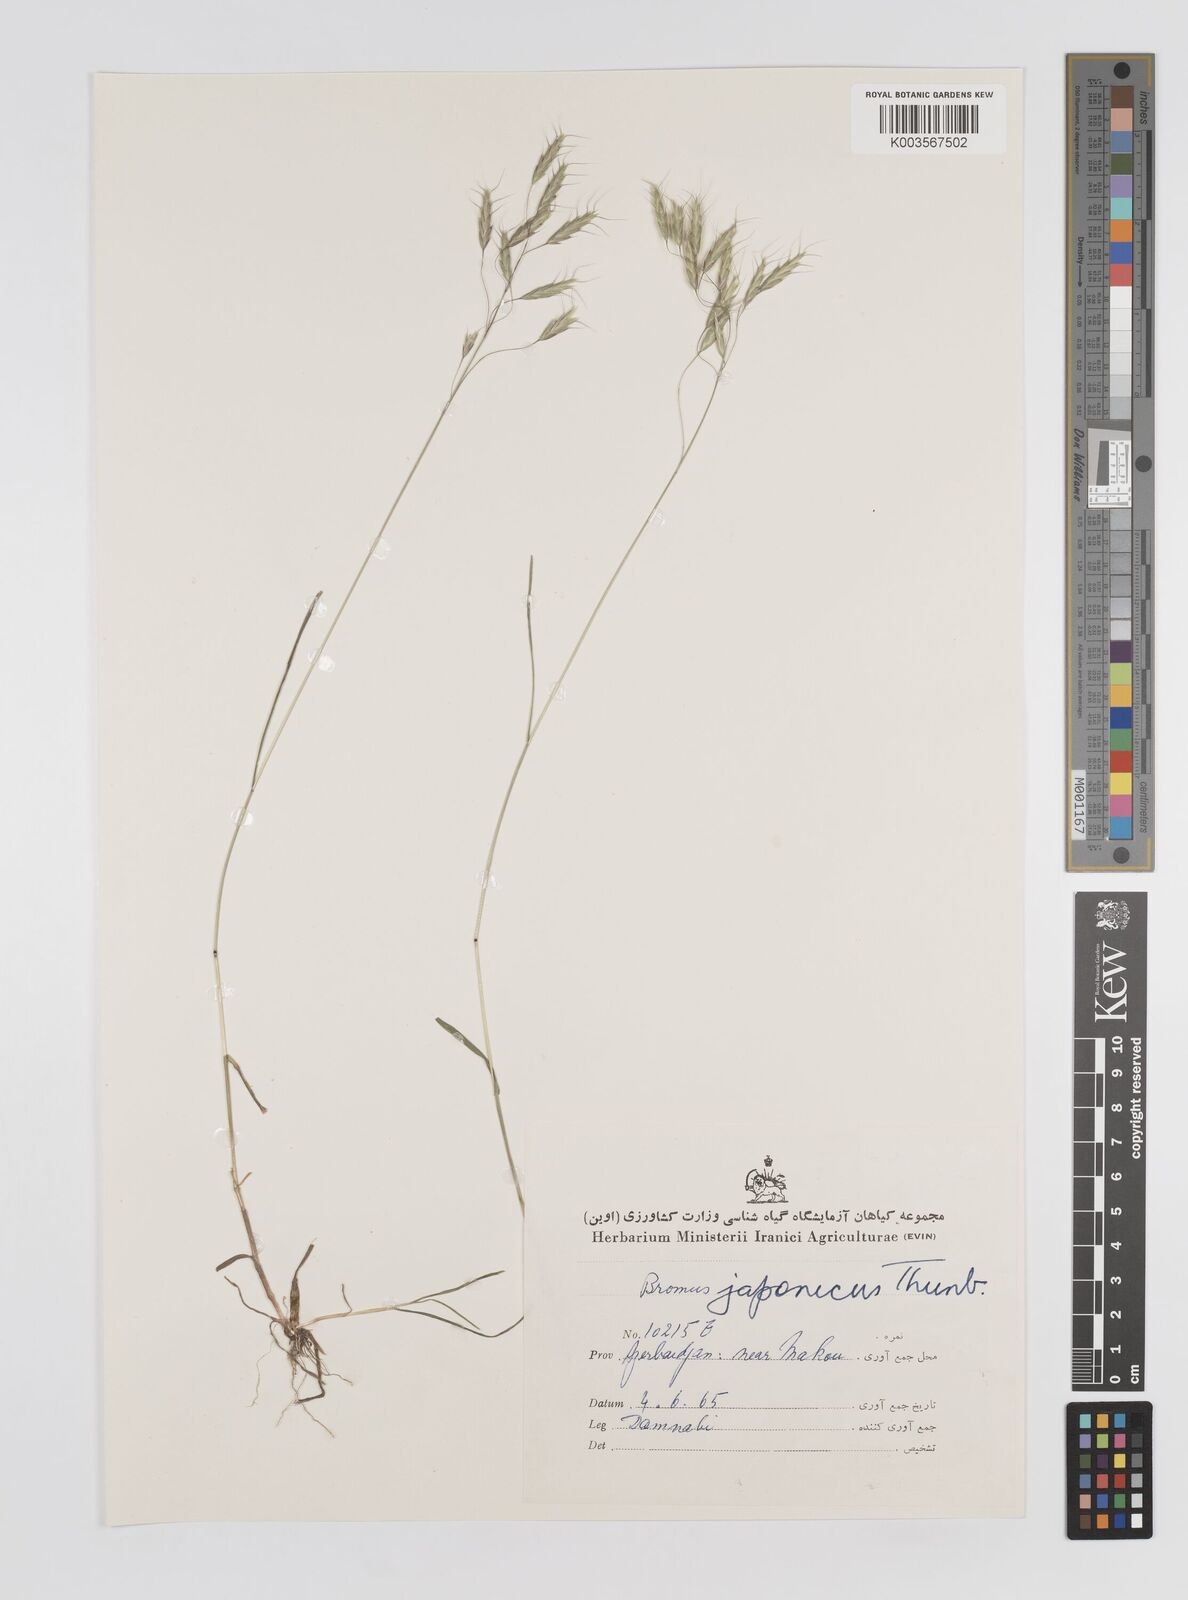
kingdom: Plantae
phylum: Tracheophyta
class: Liliopsida
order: Poales
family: Poaceae
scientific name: Poaceae
